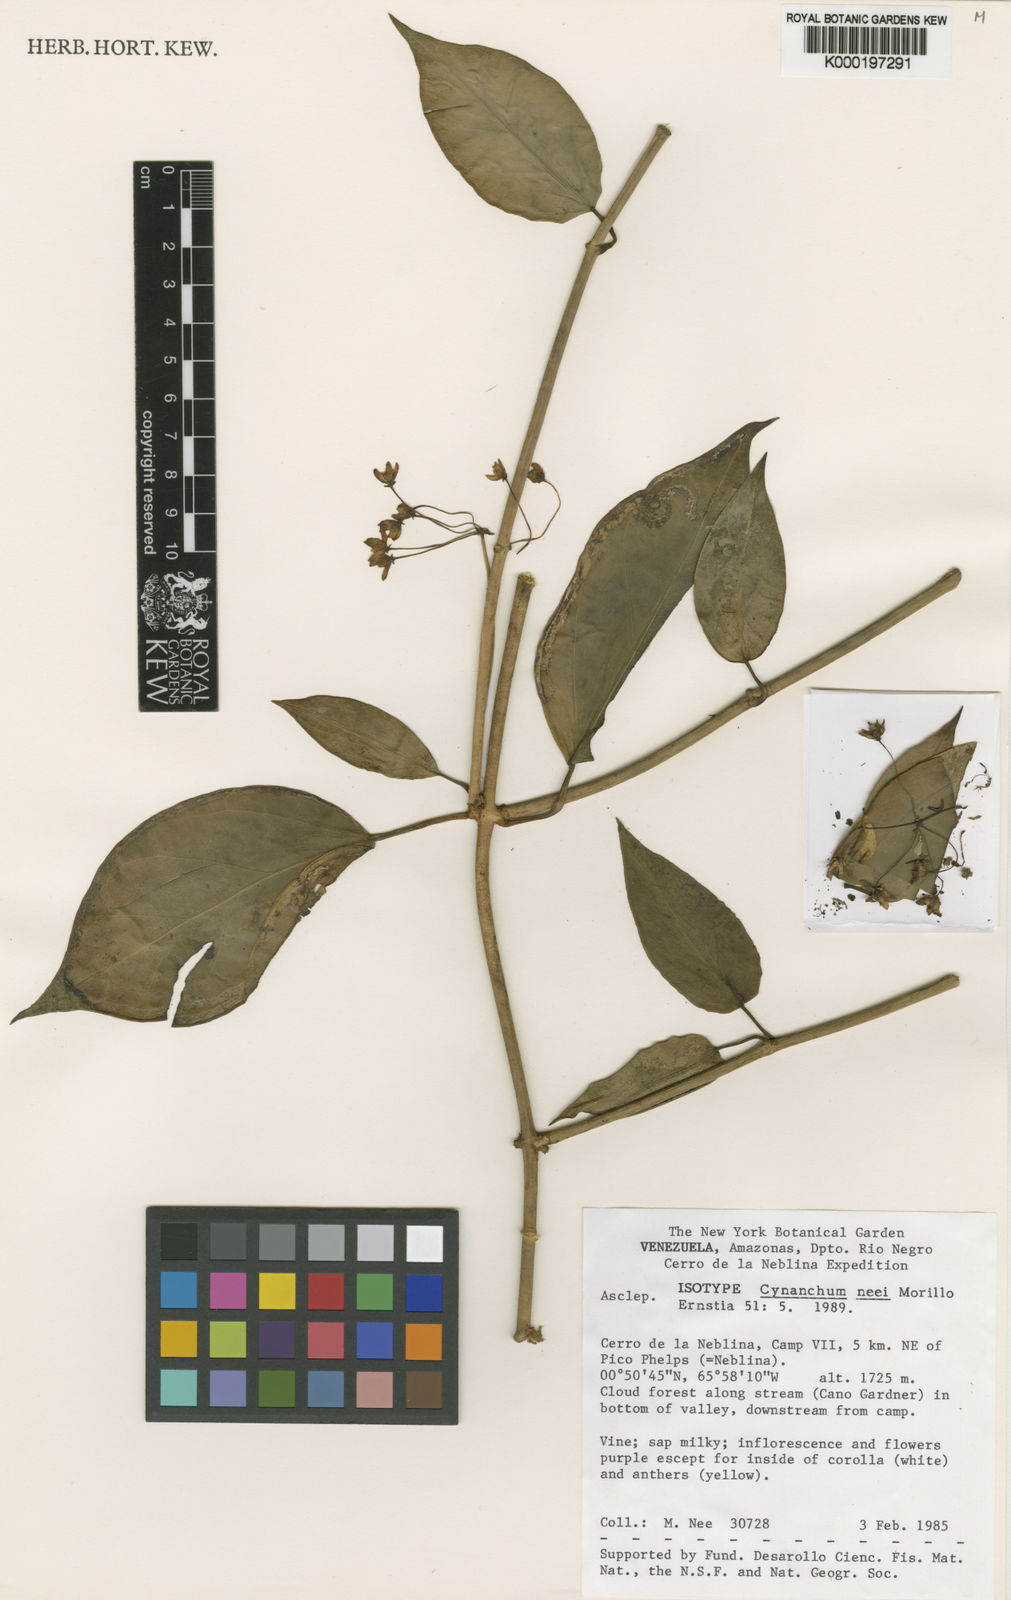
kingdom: Plantae
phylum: Tracheophyta
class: Magnoliopsida
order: Gentianales
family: Apocynaceae
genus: Jobinia
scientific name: Jobinia neei
